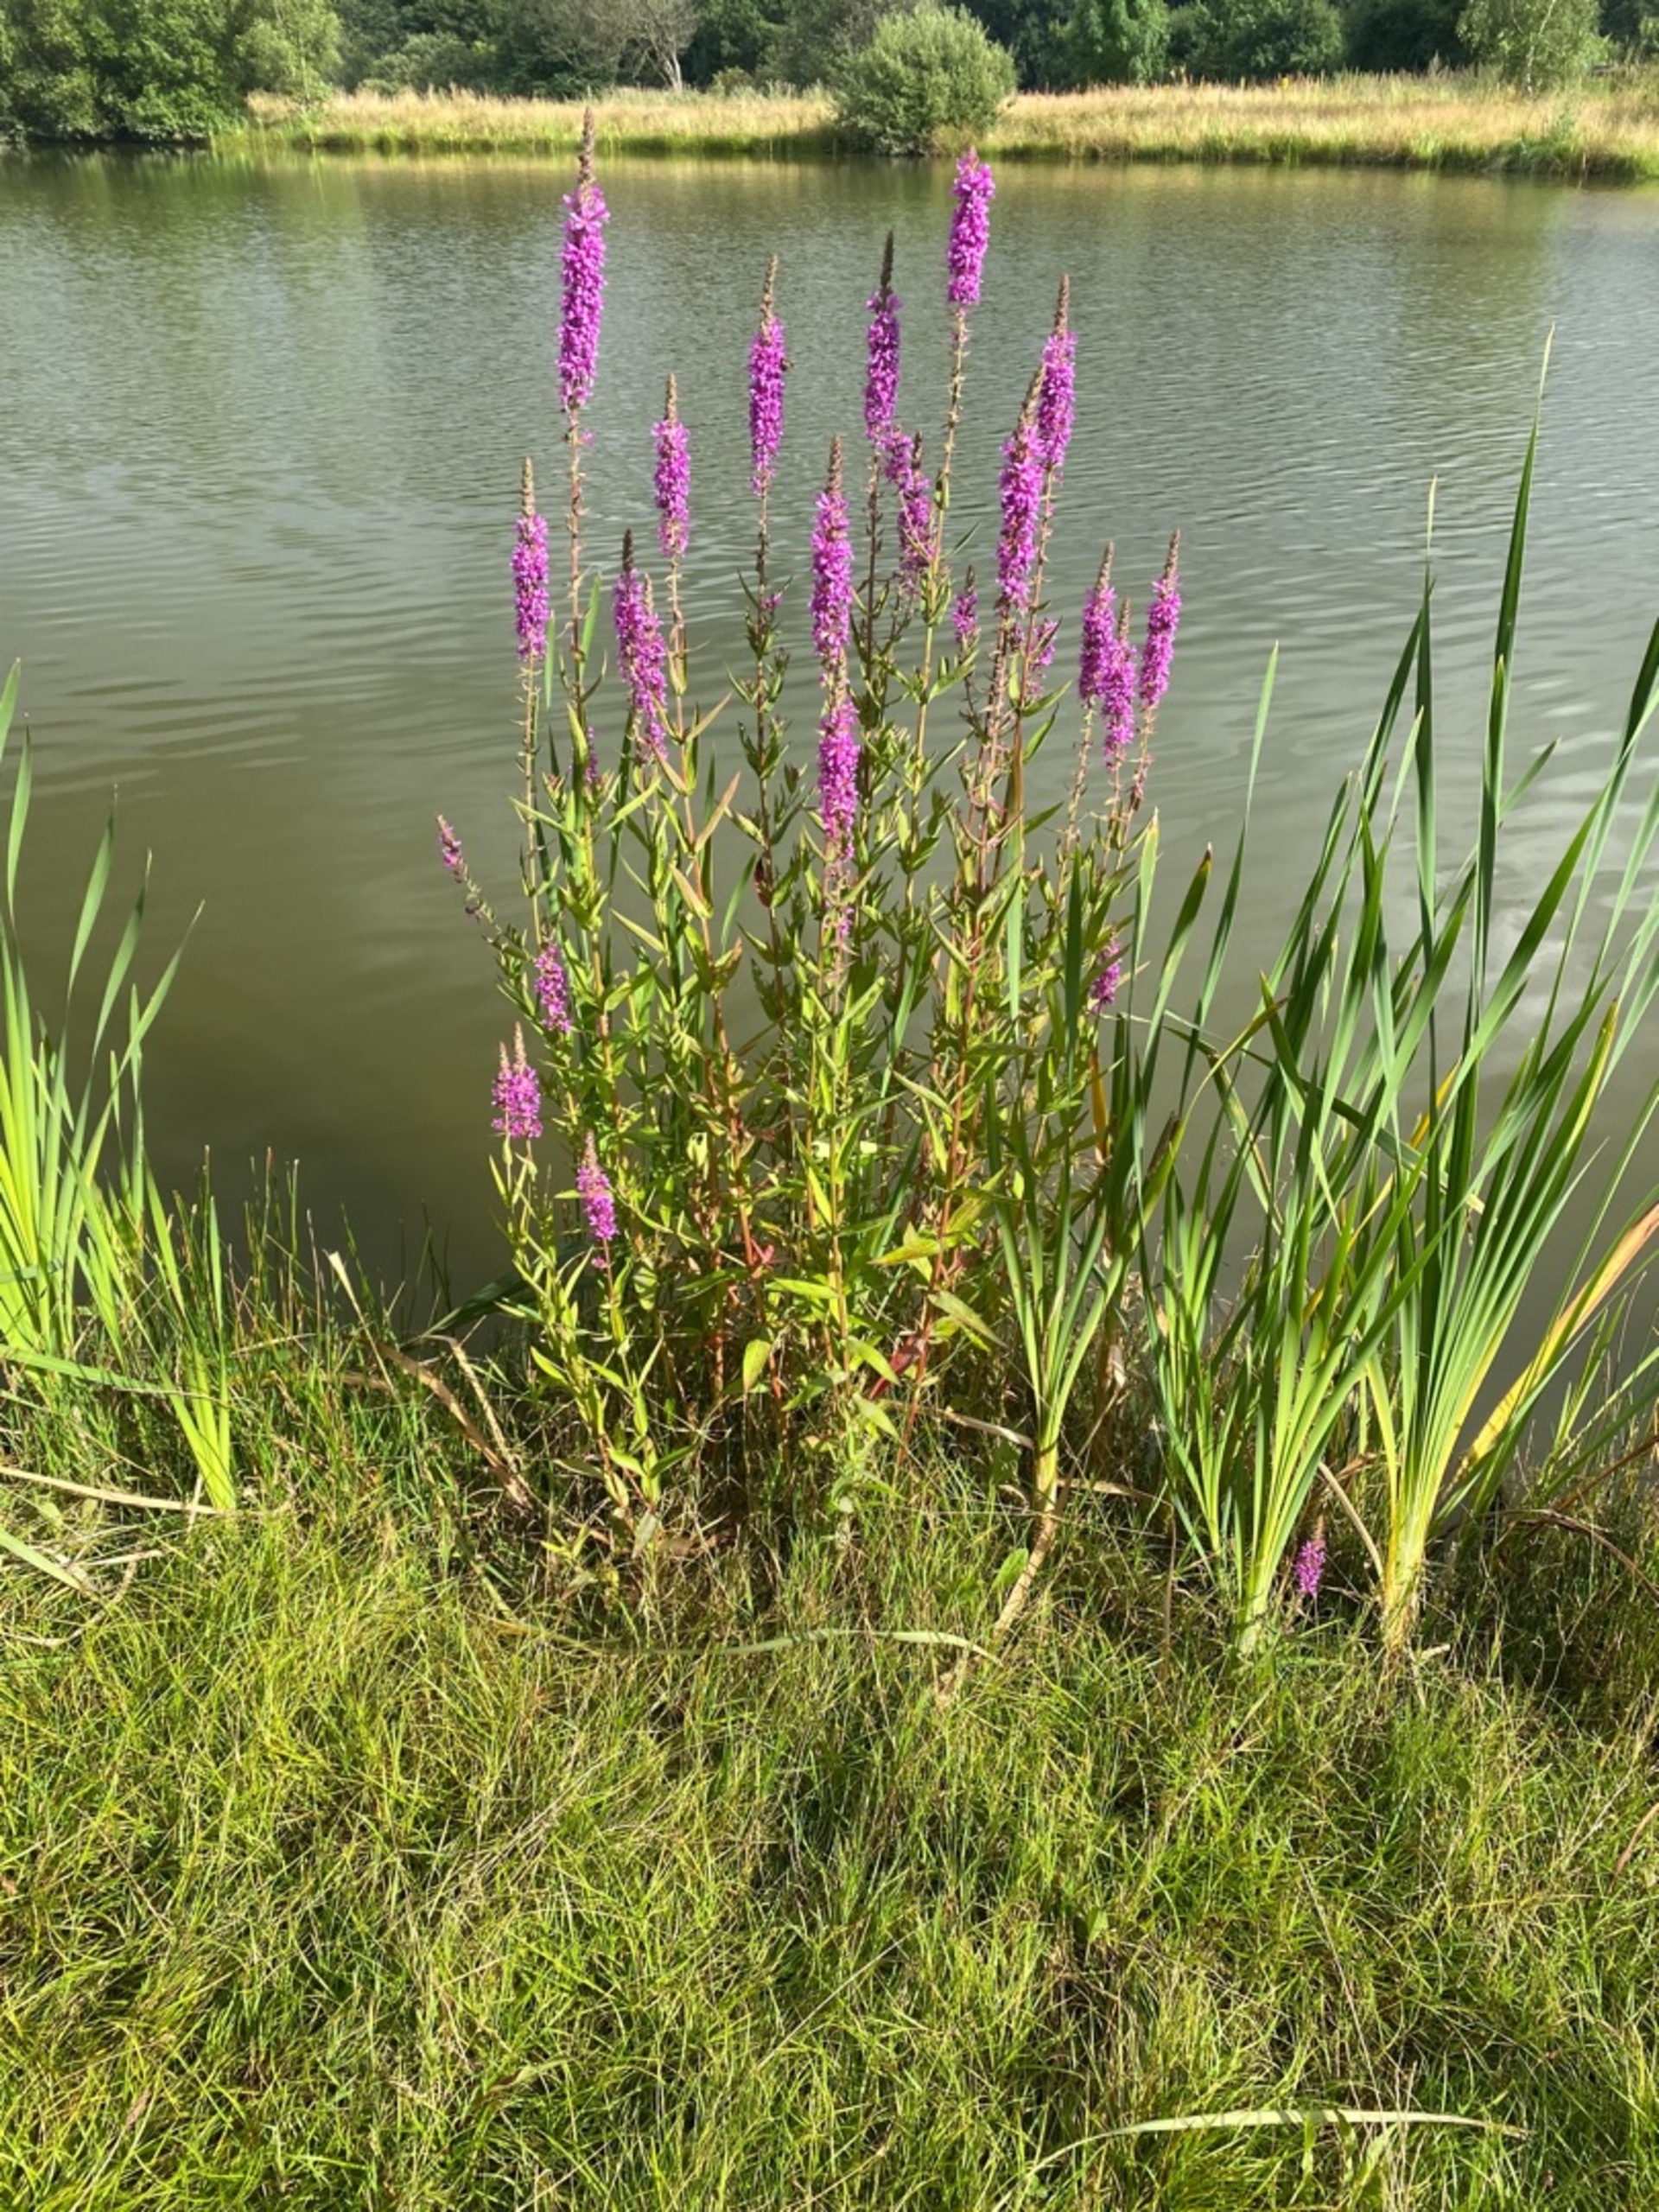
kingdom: Plantae
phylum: Tracheophyta
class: Magnoliopsida
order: Myrtales
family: Lythraceae
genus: Lythrum
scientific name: Lythrum salicaria
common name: Kattehale
